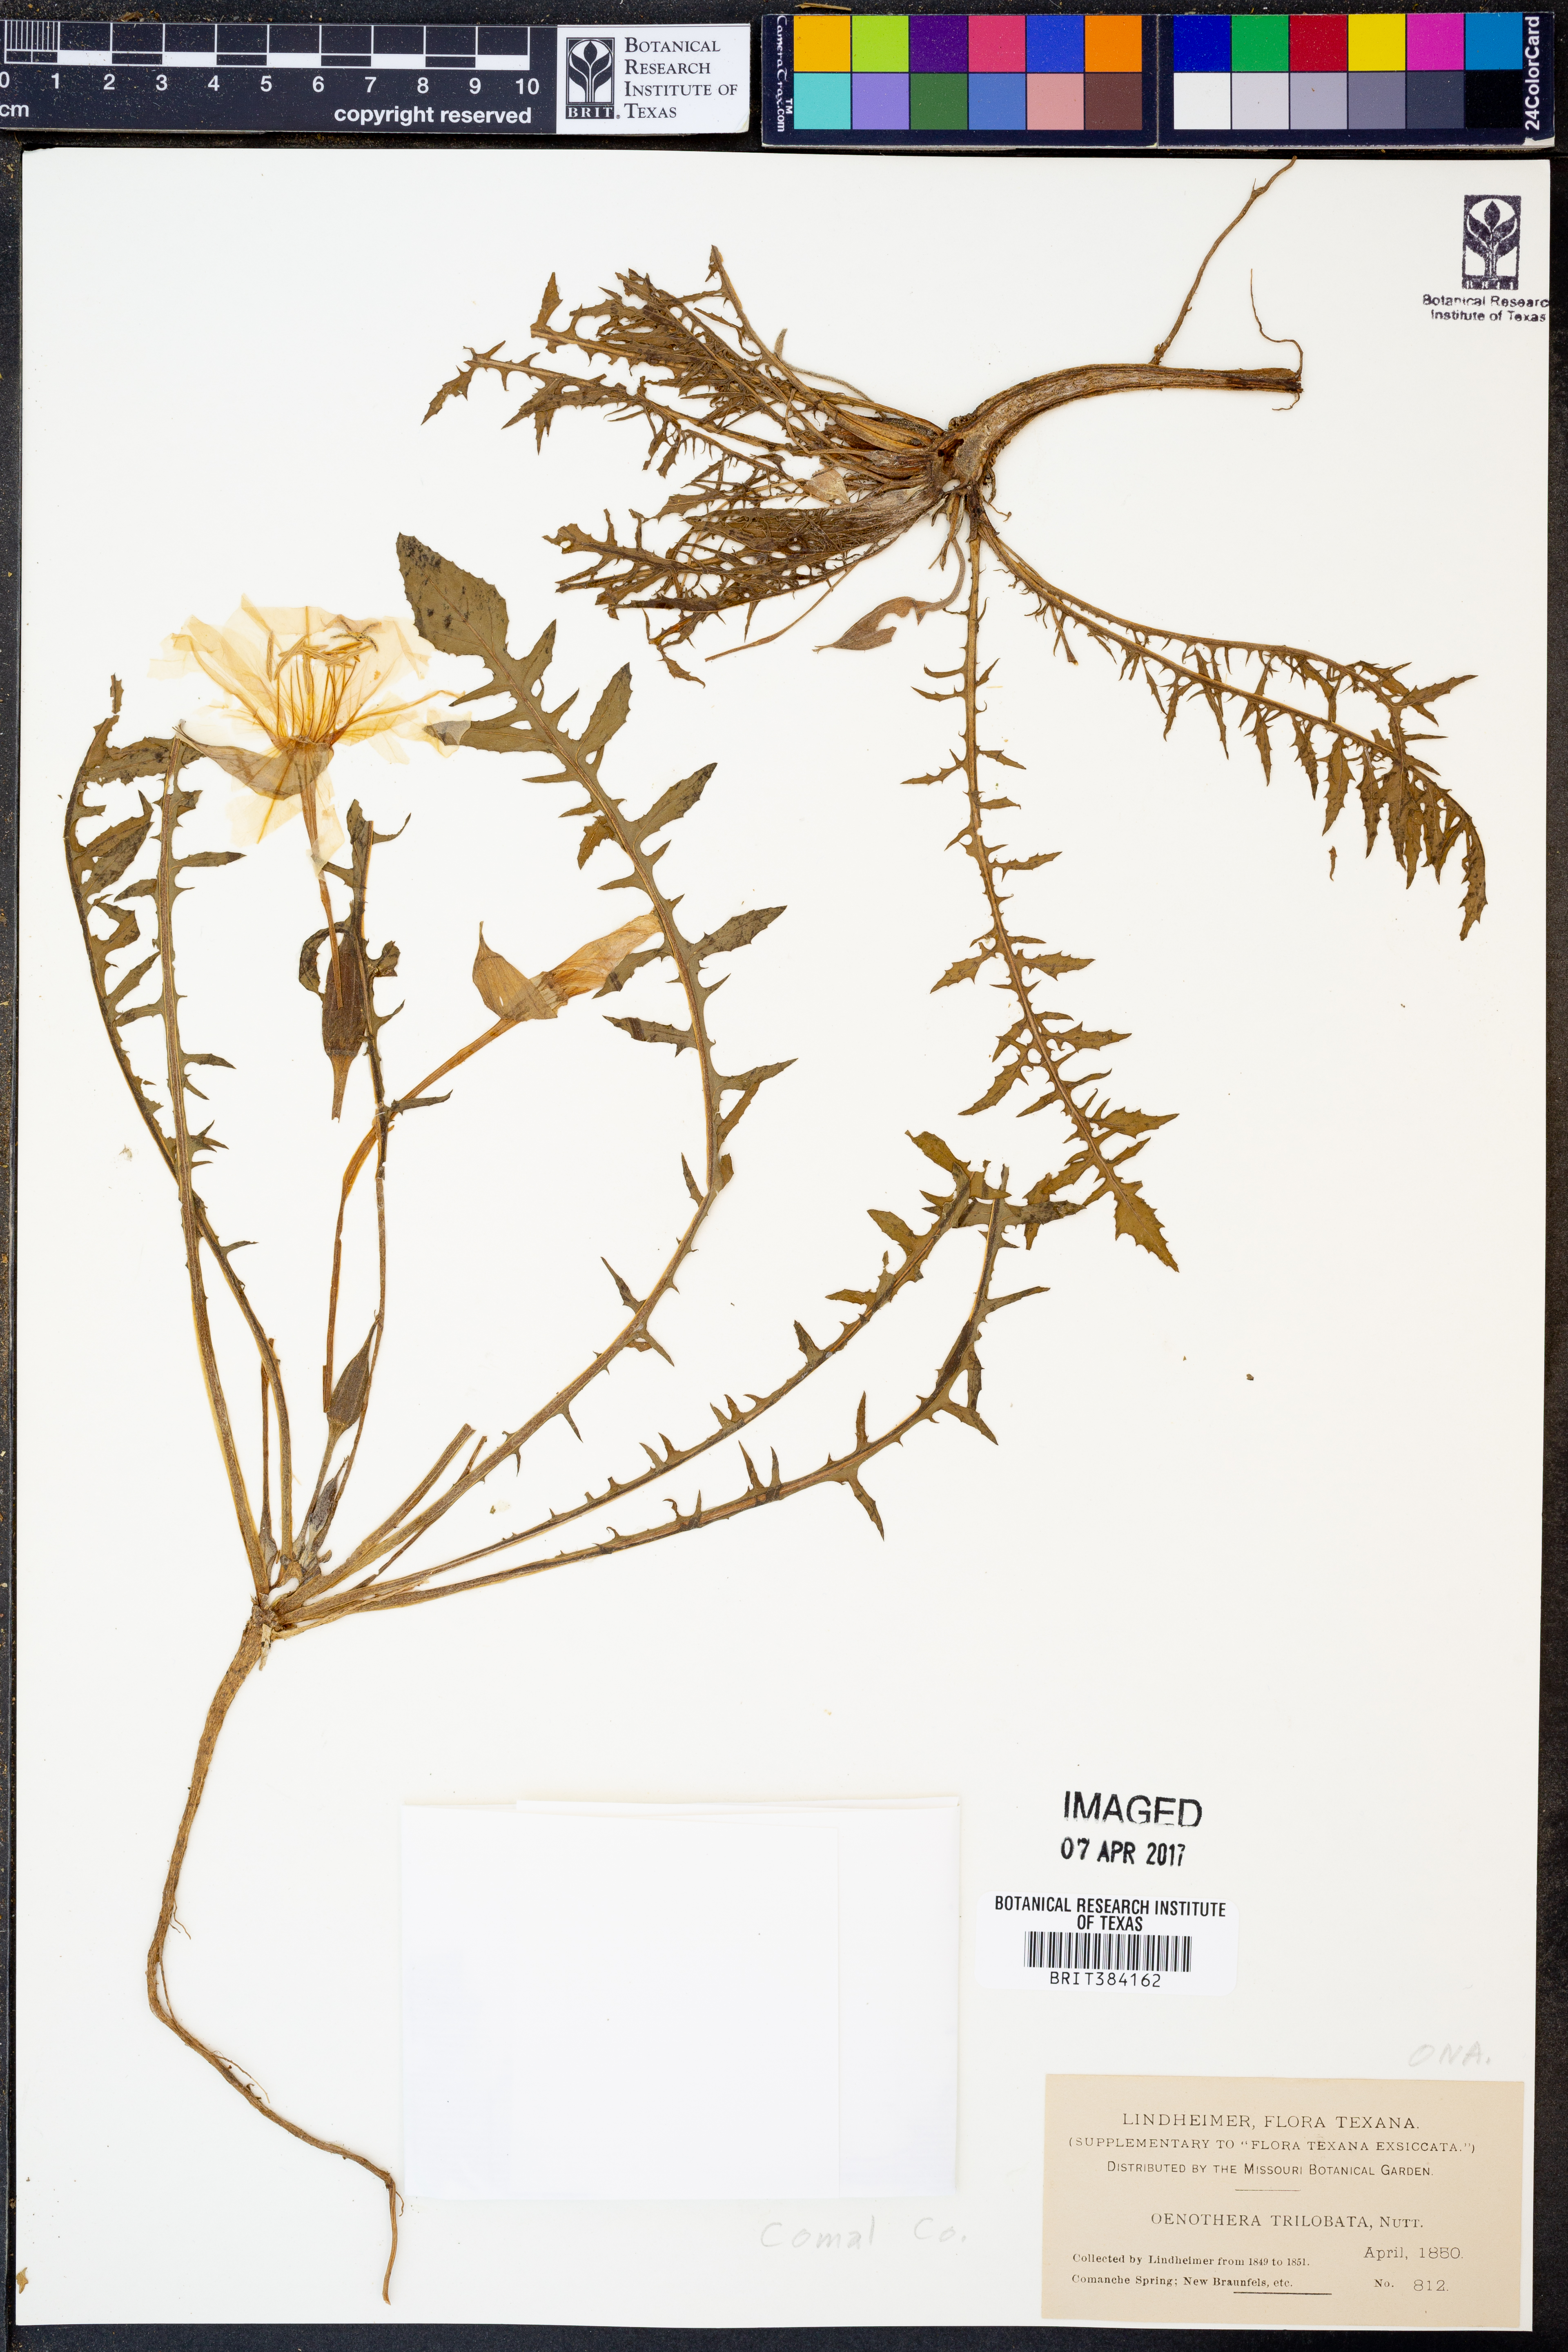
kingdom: Plantae
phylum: Tracheophyta
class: Magnoliopsida
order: Myrtales
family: Onagraceae
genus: Oenothera
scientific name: Oenothera triloba
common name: Sessile evening-primrose
